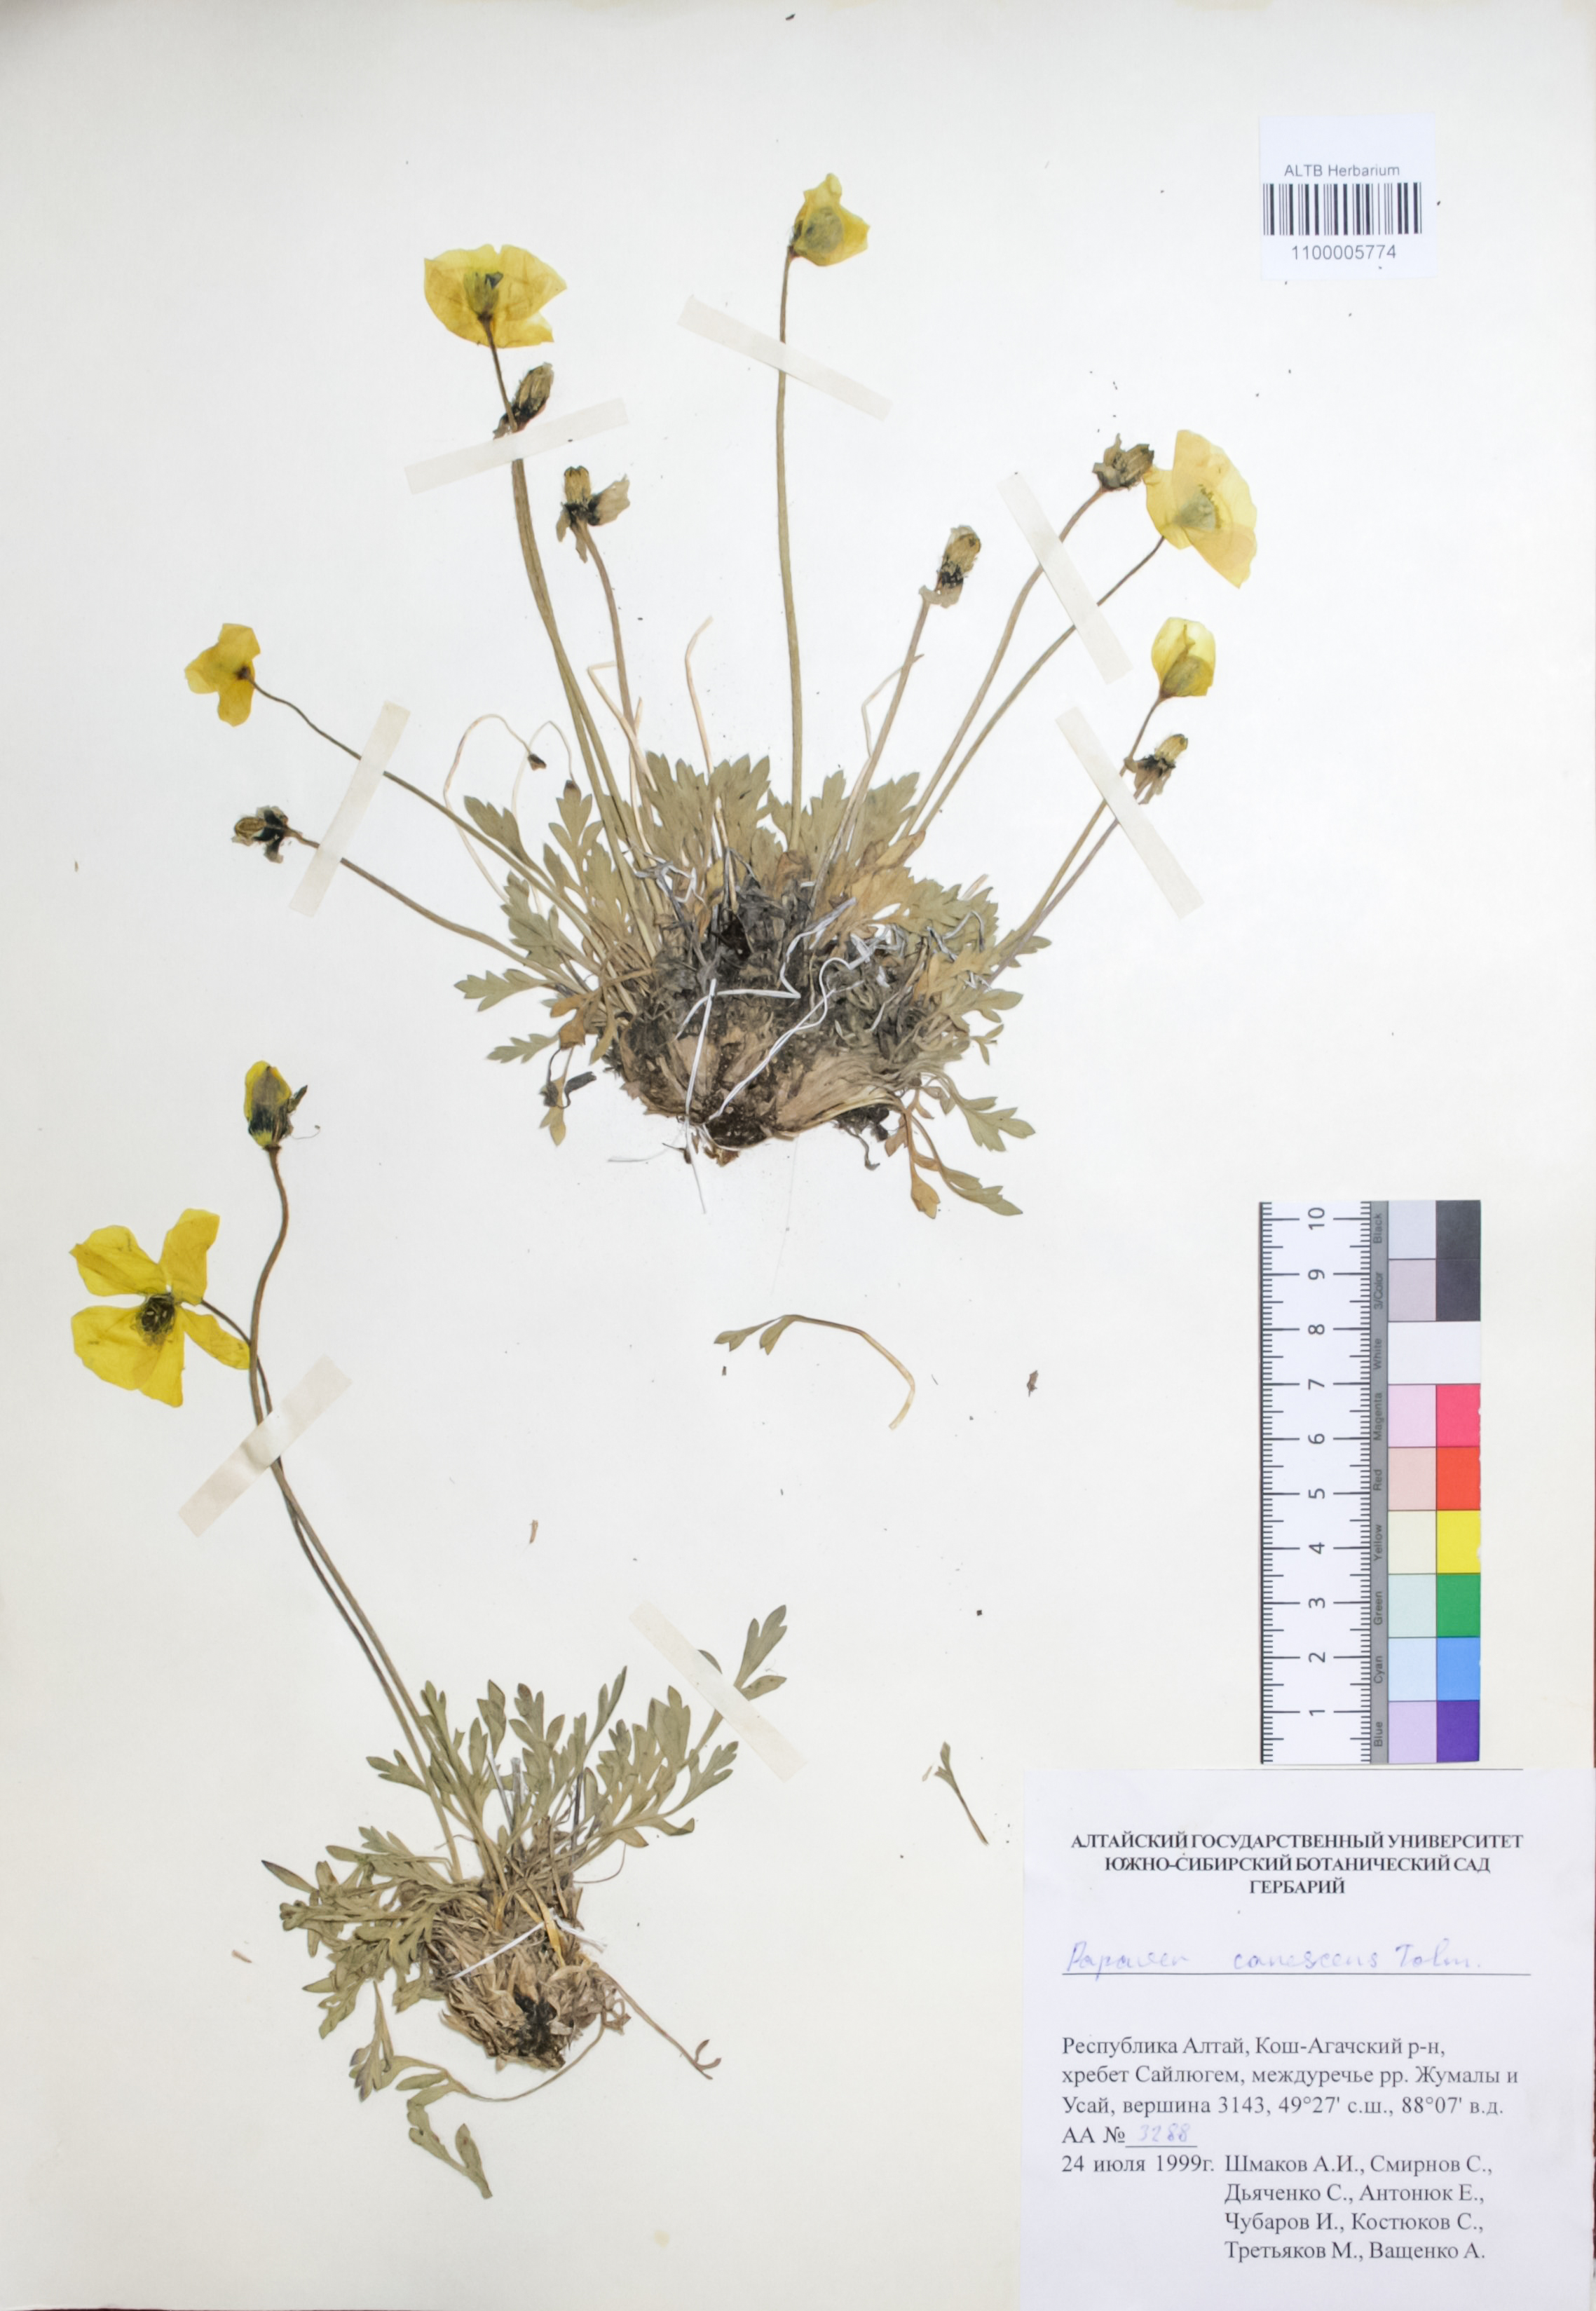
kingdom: Plantae
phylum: Tracheophyta
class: Magnoliopsida
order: Ranunculales
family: Papaveraceae
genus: Papaver
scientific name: Papaver canescens
